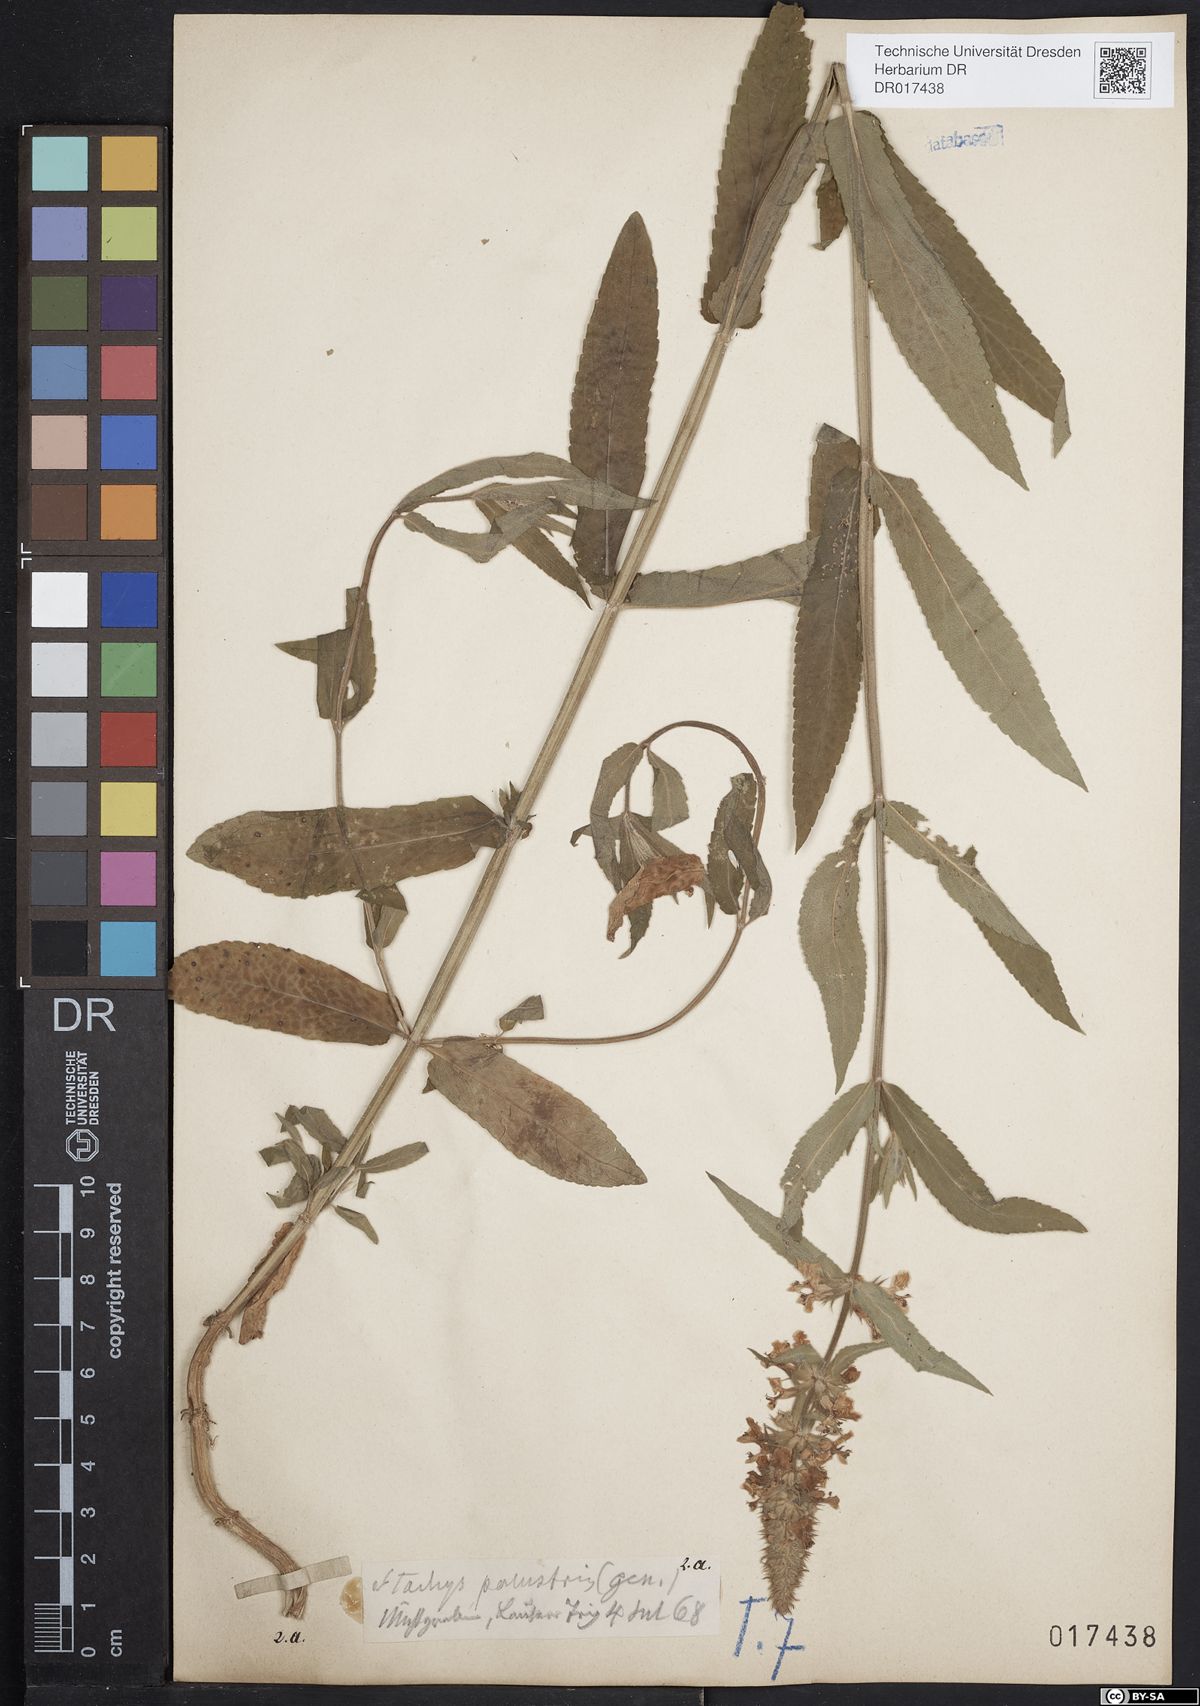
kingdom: Plantae
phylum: Tracheophyta
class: Magnoliopsida
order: Lamiales
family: Lamiaceae
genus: Stachys
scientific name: Stachys palustris
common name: Marsh woundwort
